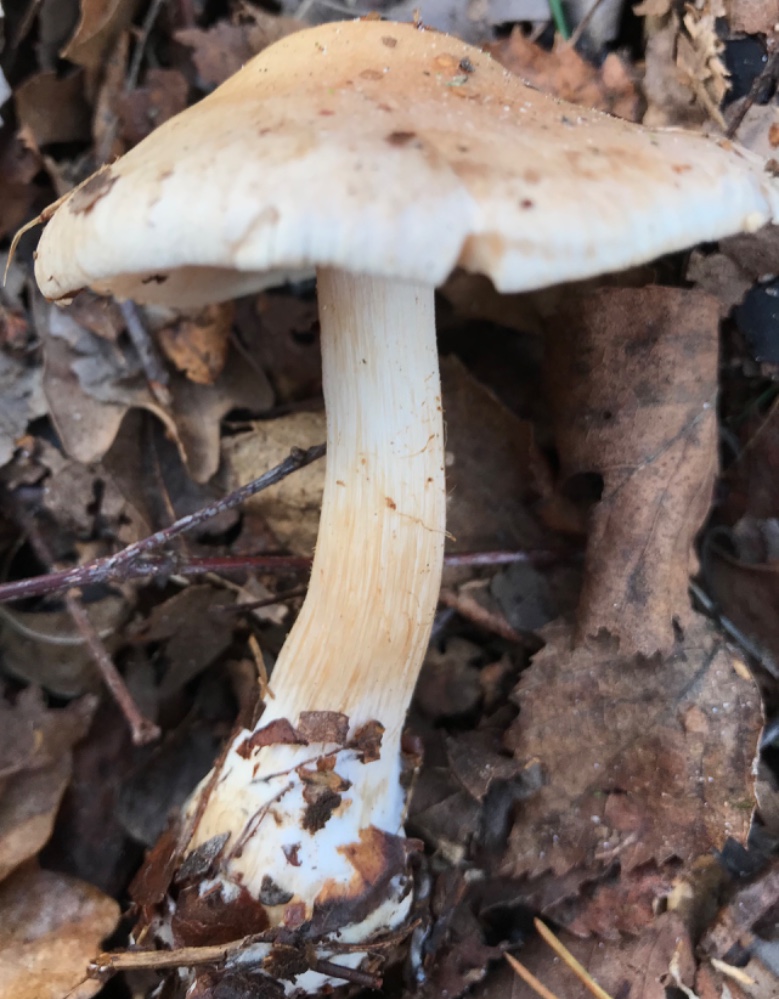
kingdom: Fungi
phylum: Basidiomycota
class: Agaricomycetes
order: Agaricales
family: Hymenogastraceae
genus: Hebeloma
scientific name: Hebeloma
